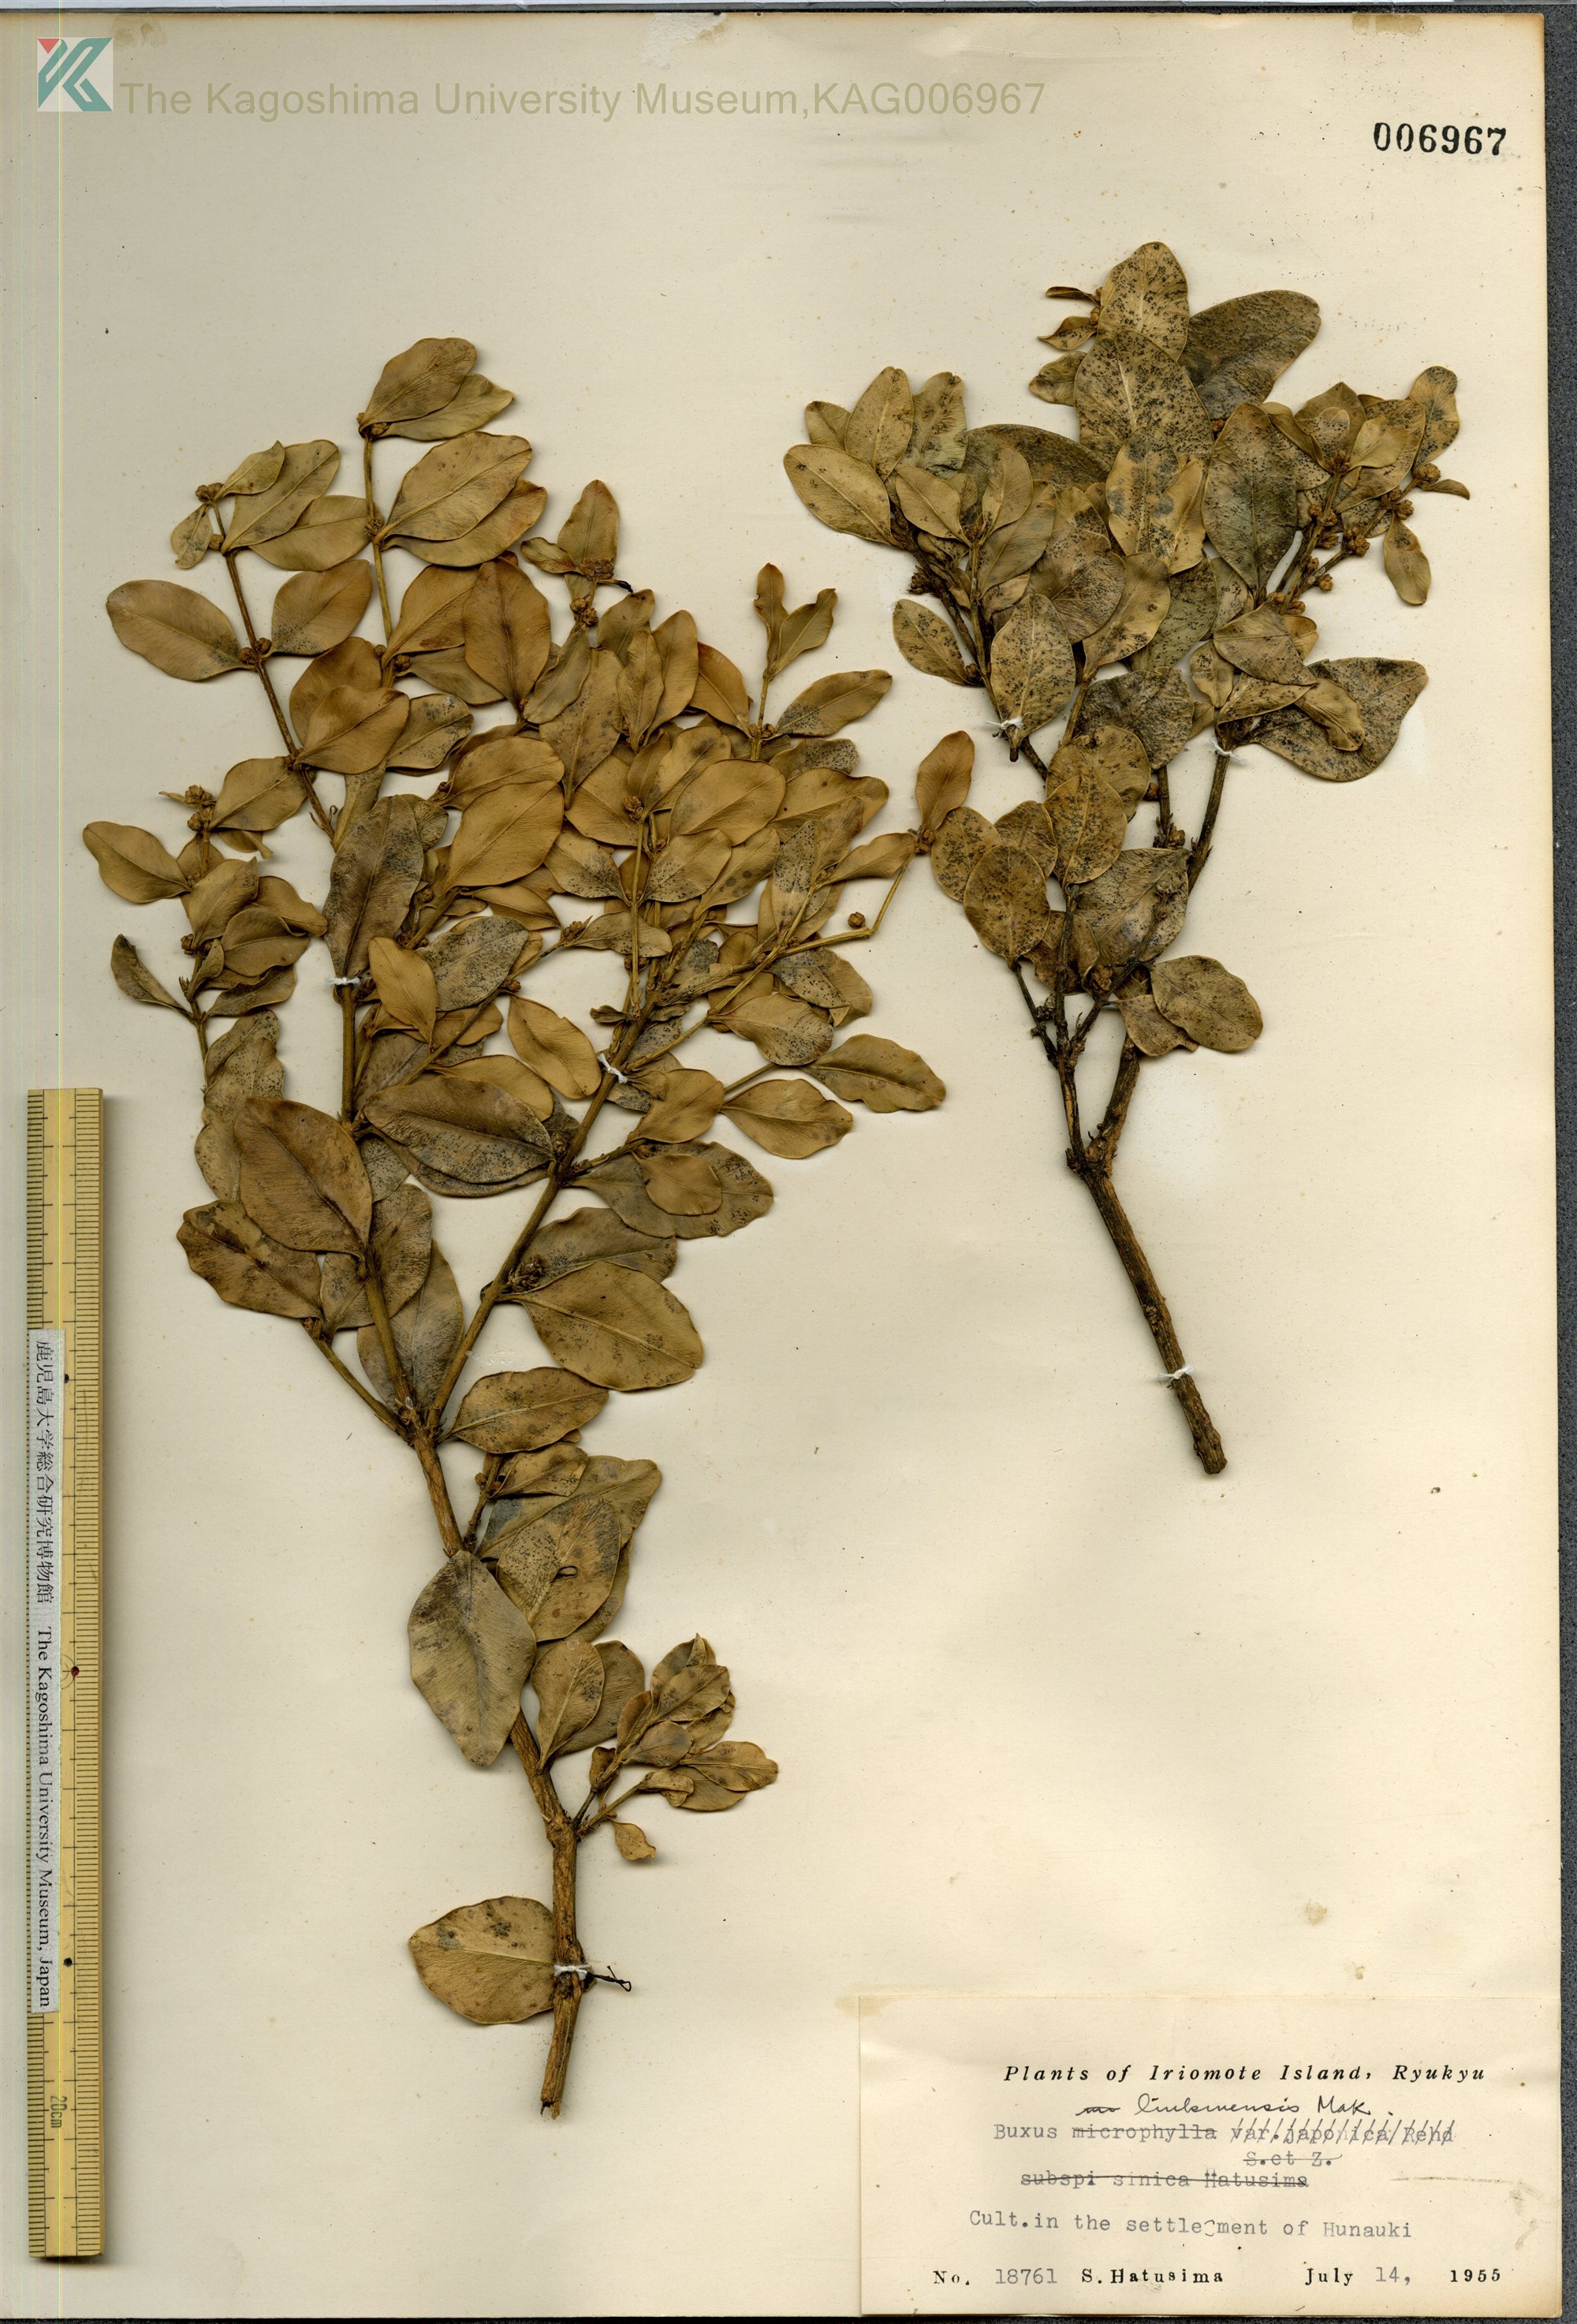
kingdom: Plantae
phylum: Tracheophyta
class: Magnoliopsida
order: Buxales
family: Buxaceae
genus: Buxus
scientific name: Buxus liukiuensis
